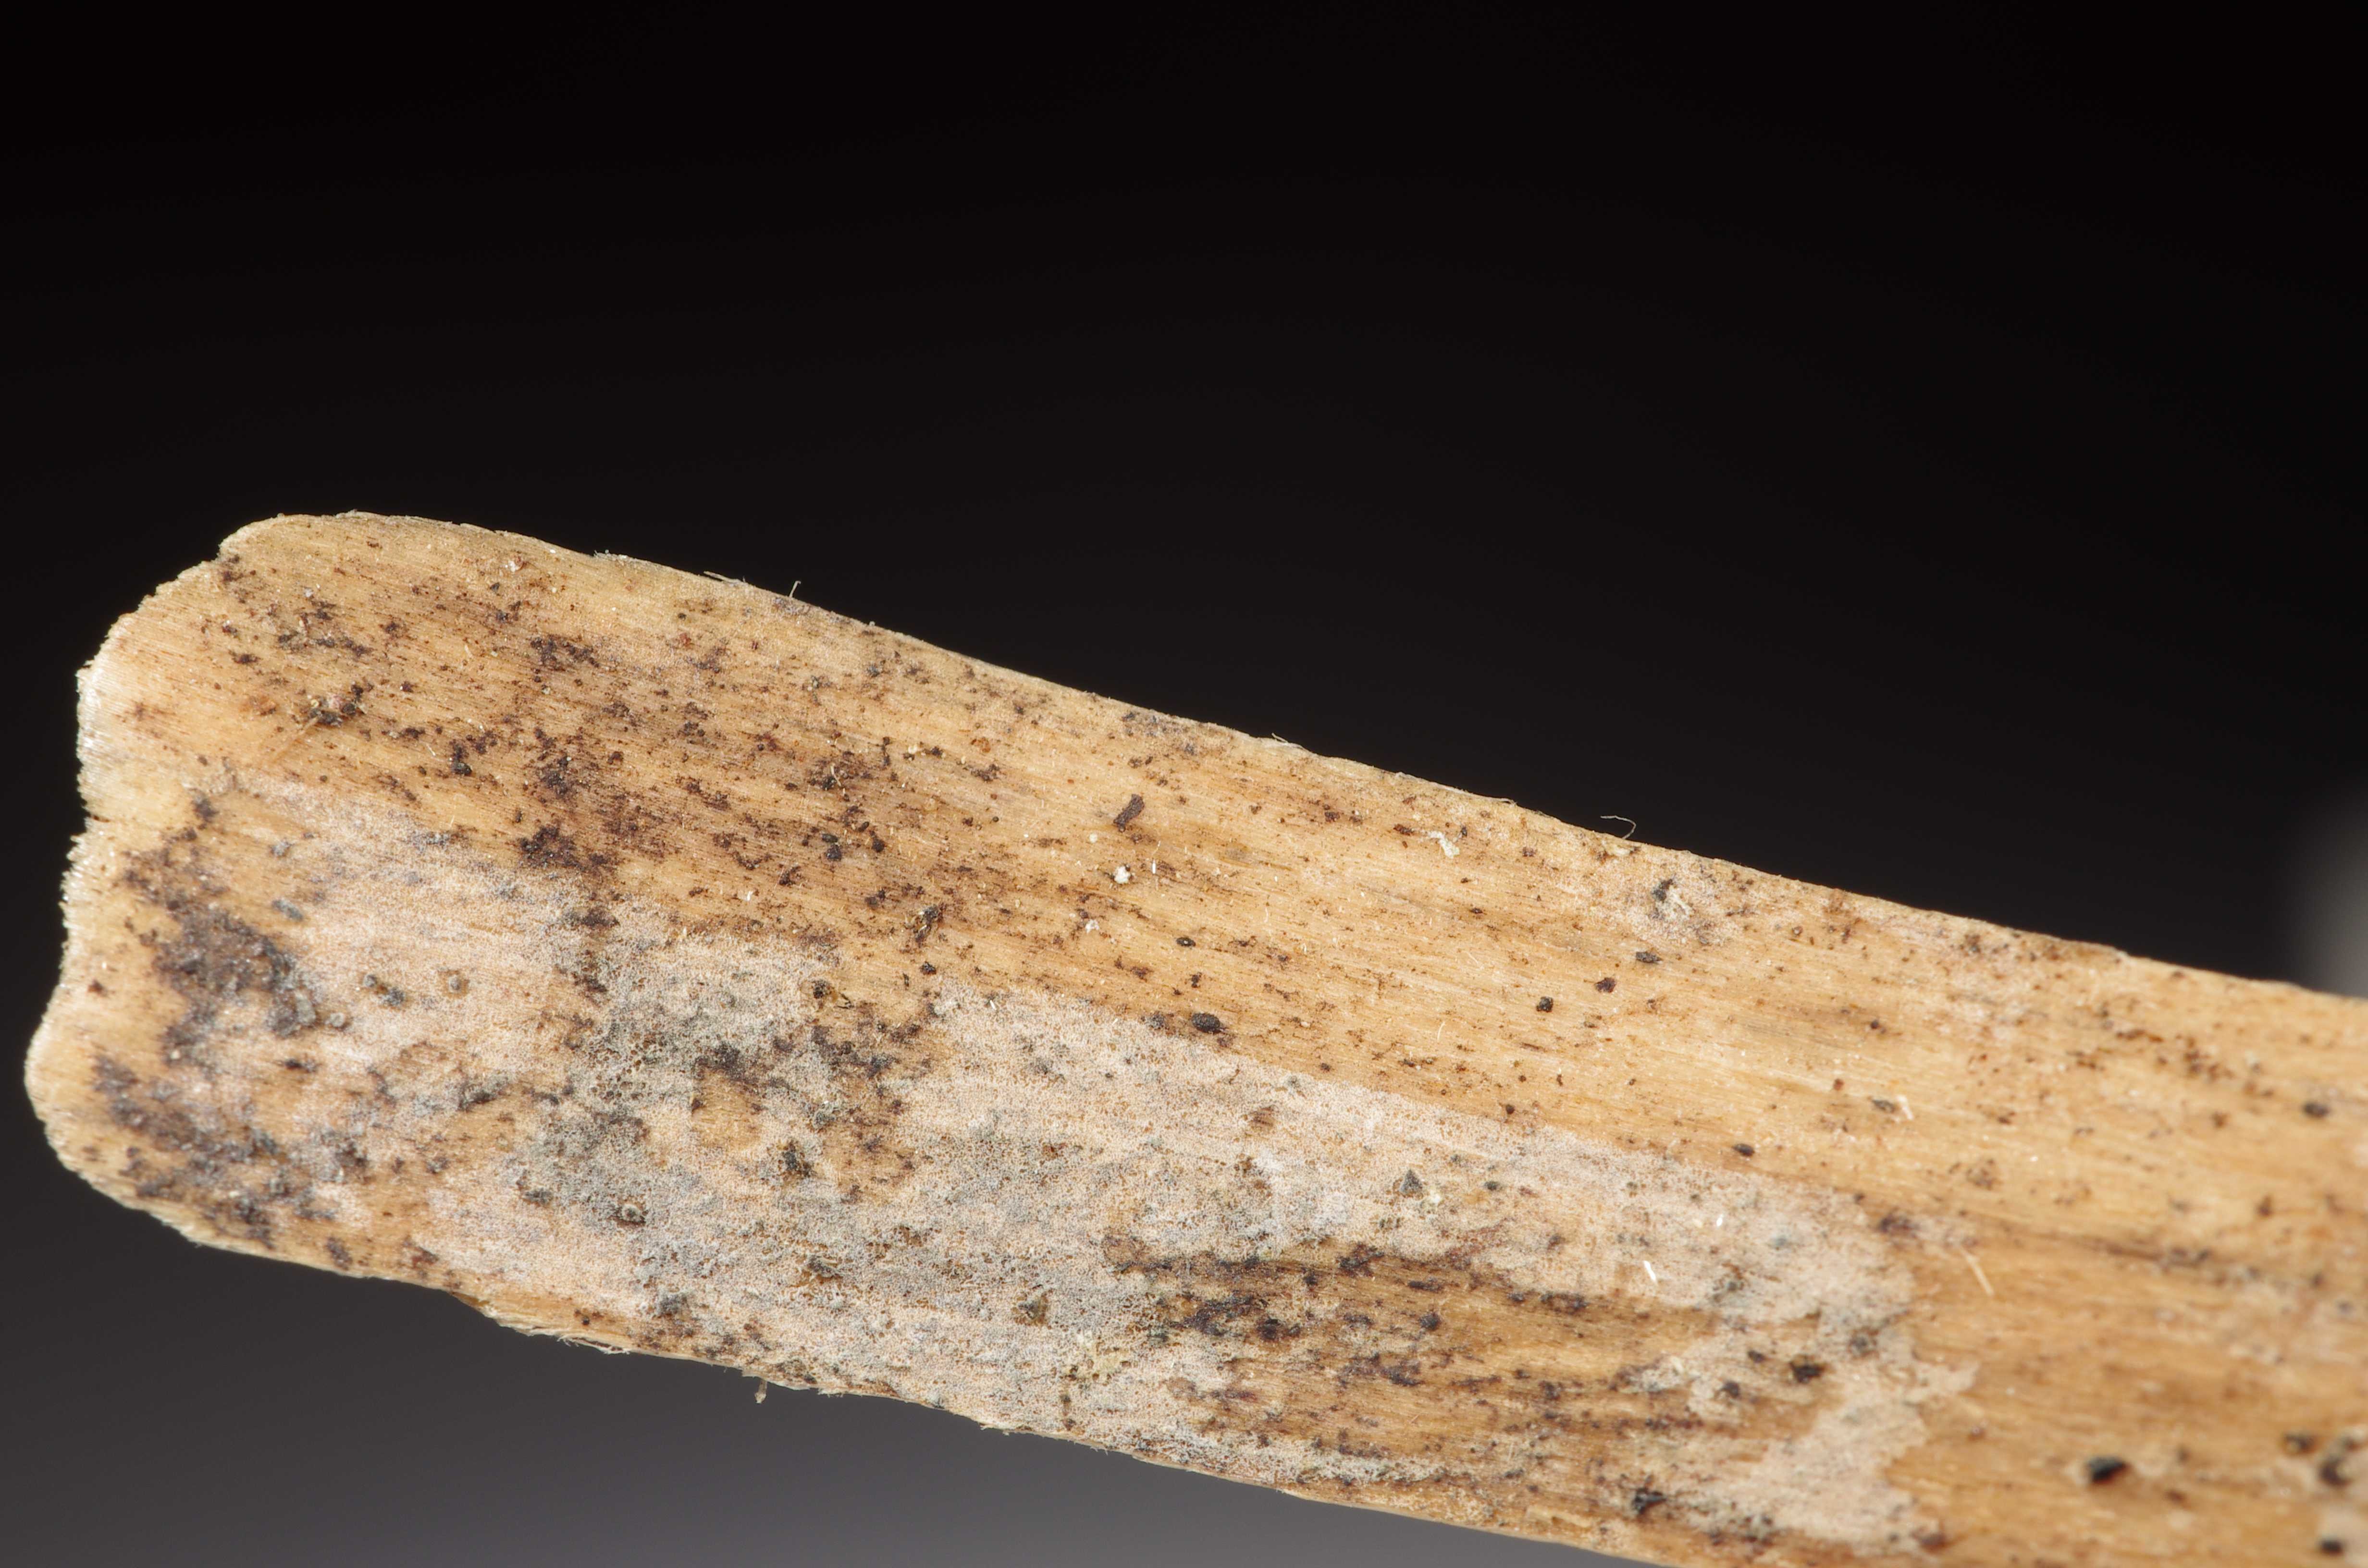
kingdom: Fungi
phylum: Basidiomycota
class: Agaricomycetes
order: Auriculariales
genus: Basidiodendron
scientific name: Basidiodendron pini
